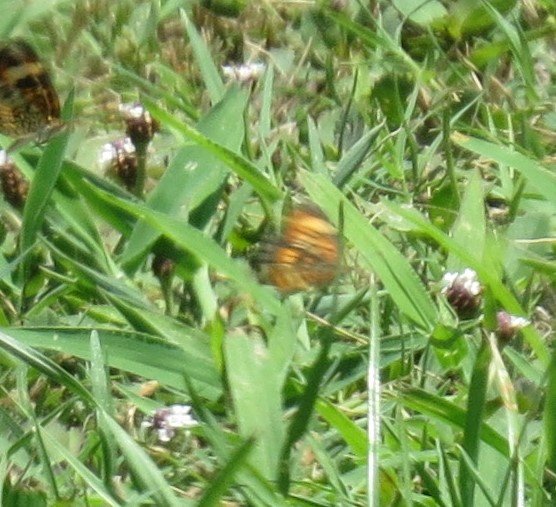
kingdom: Animalia
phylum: Arthropoda
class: Insecta
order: Lepidoptera
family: Nymphalidae
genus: Phyciodes
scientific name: Phyciodes phaon
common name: Phaon Crescent
